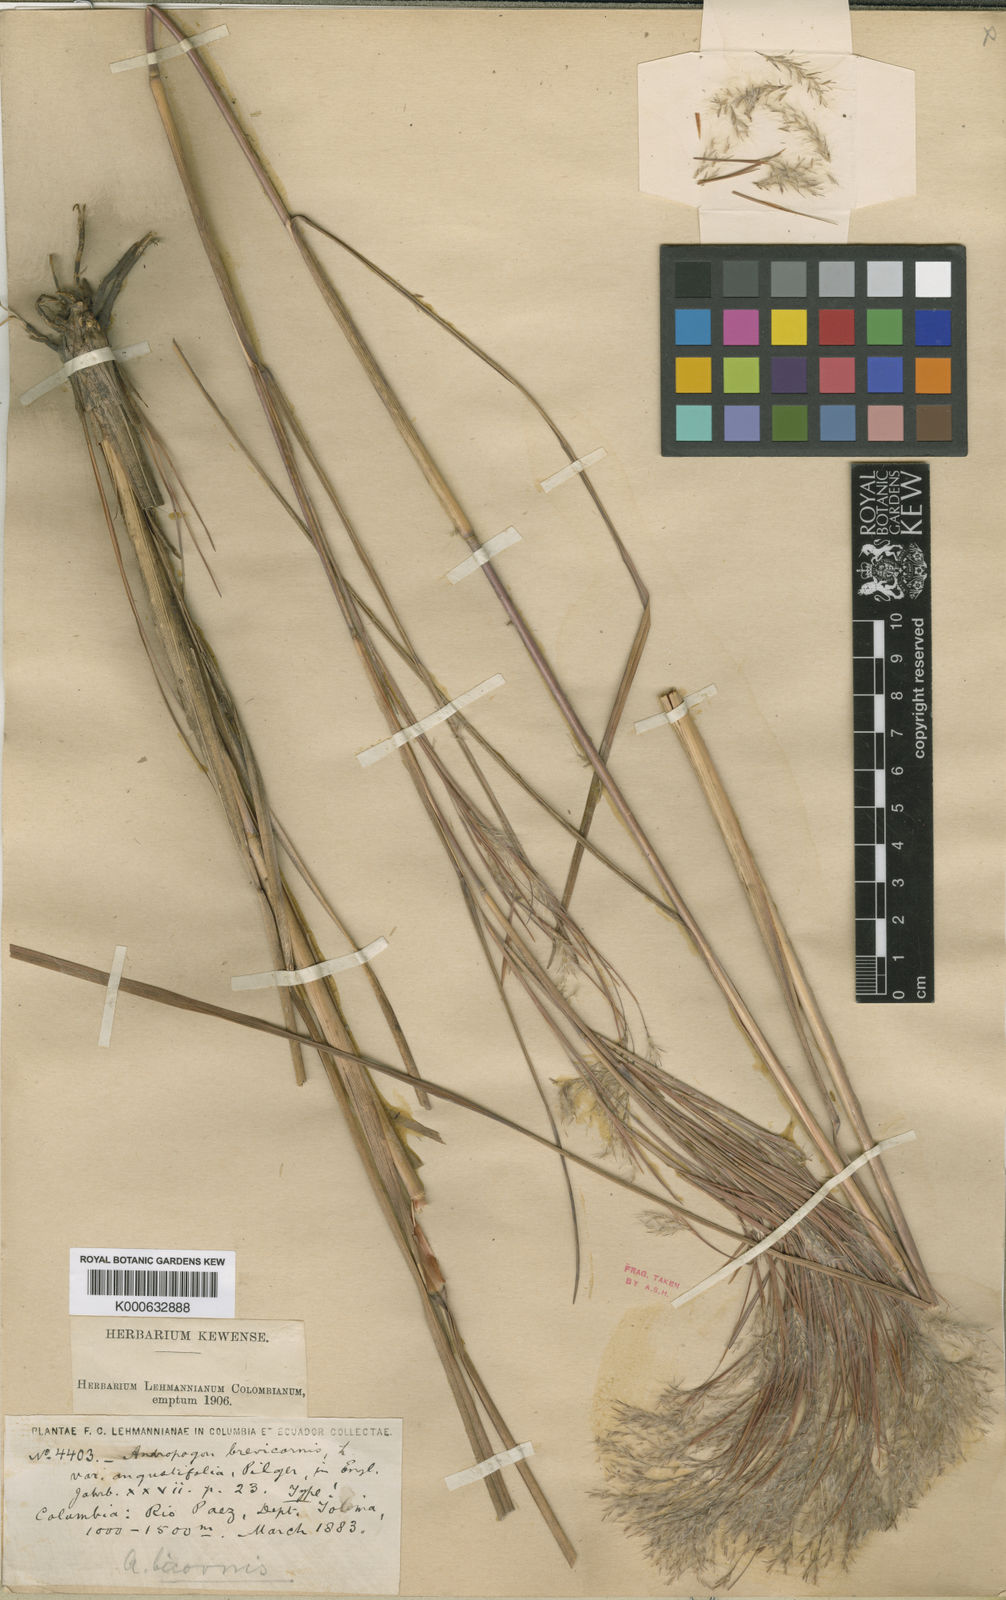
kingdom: Plantae
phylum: Tracheophyta
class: Liliopsida
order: Poales
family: Poaceae
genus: Andropogon
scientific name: Andropogon bicornis
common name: West indian foxtail grass
